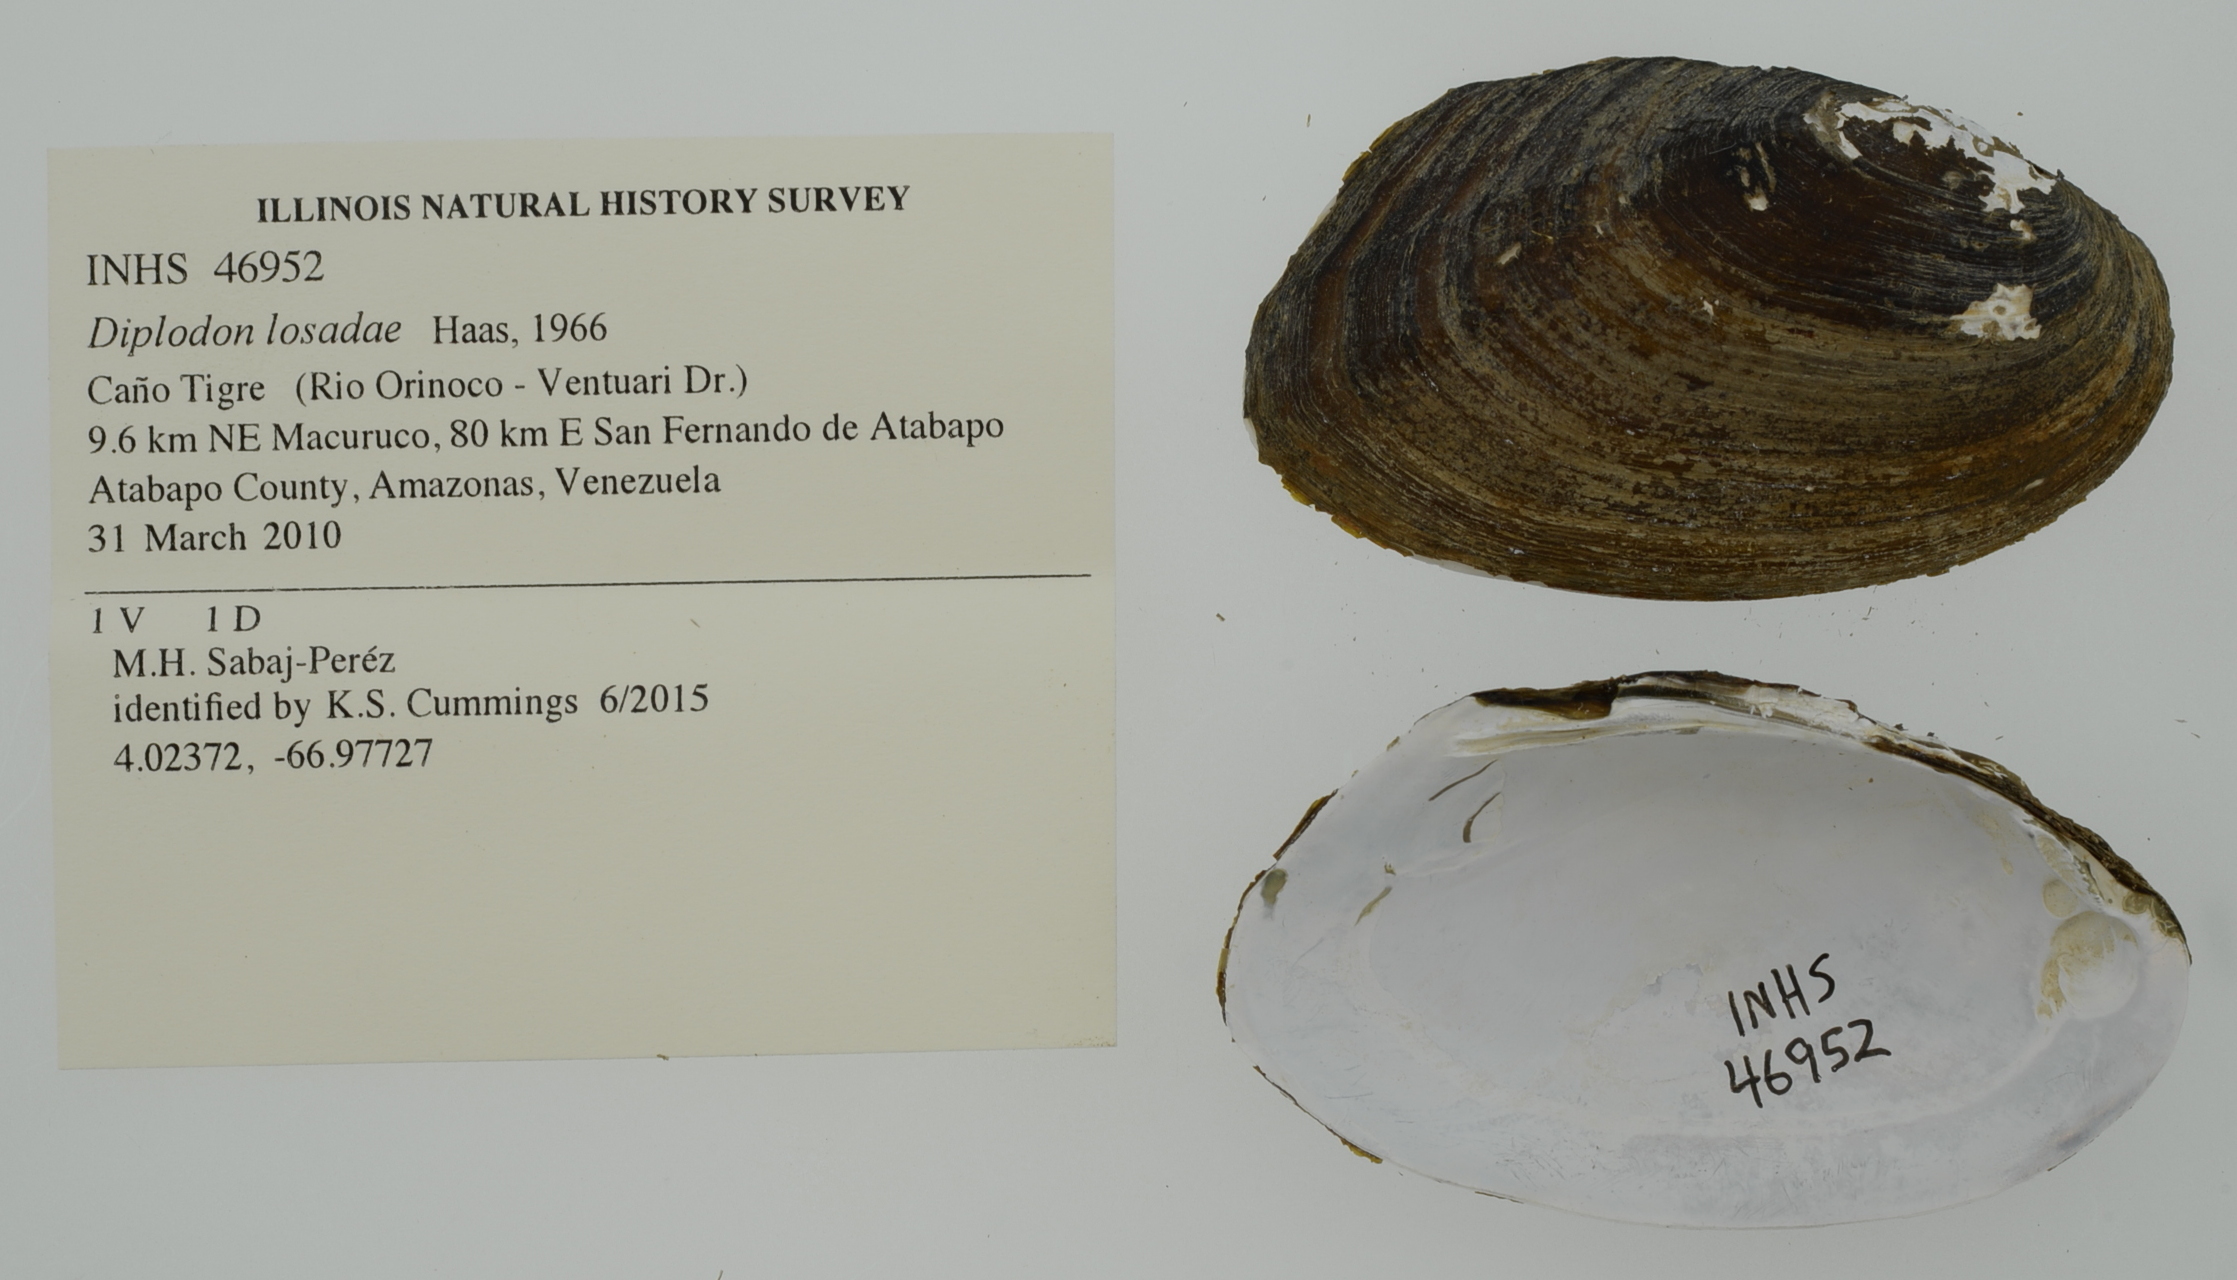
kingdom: Animalia
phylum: Mollusca
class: Bivalvia
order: Unionida
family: Hyriidae
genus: Diplodon
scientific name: Diplodon losadae
